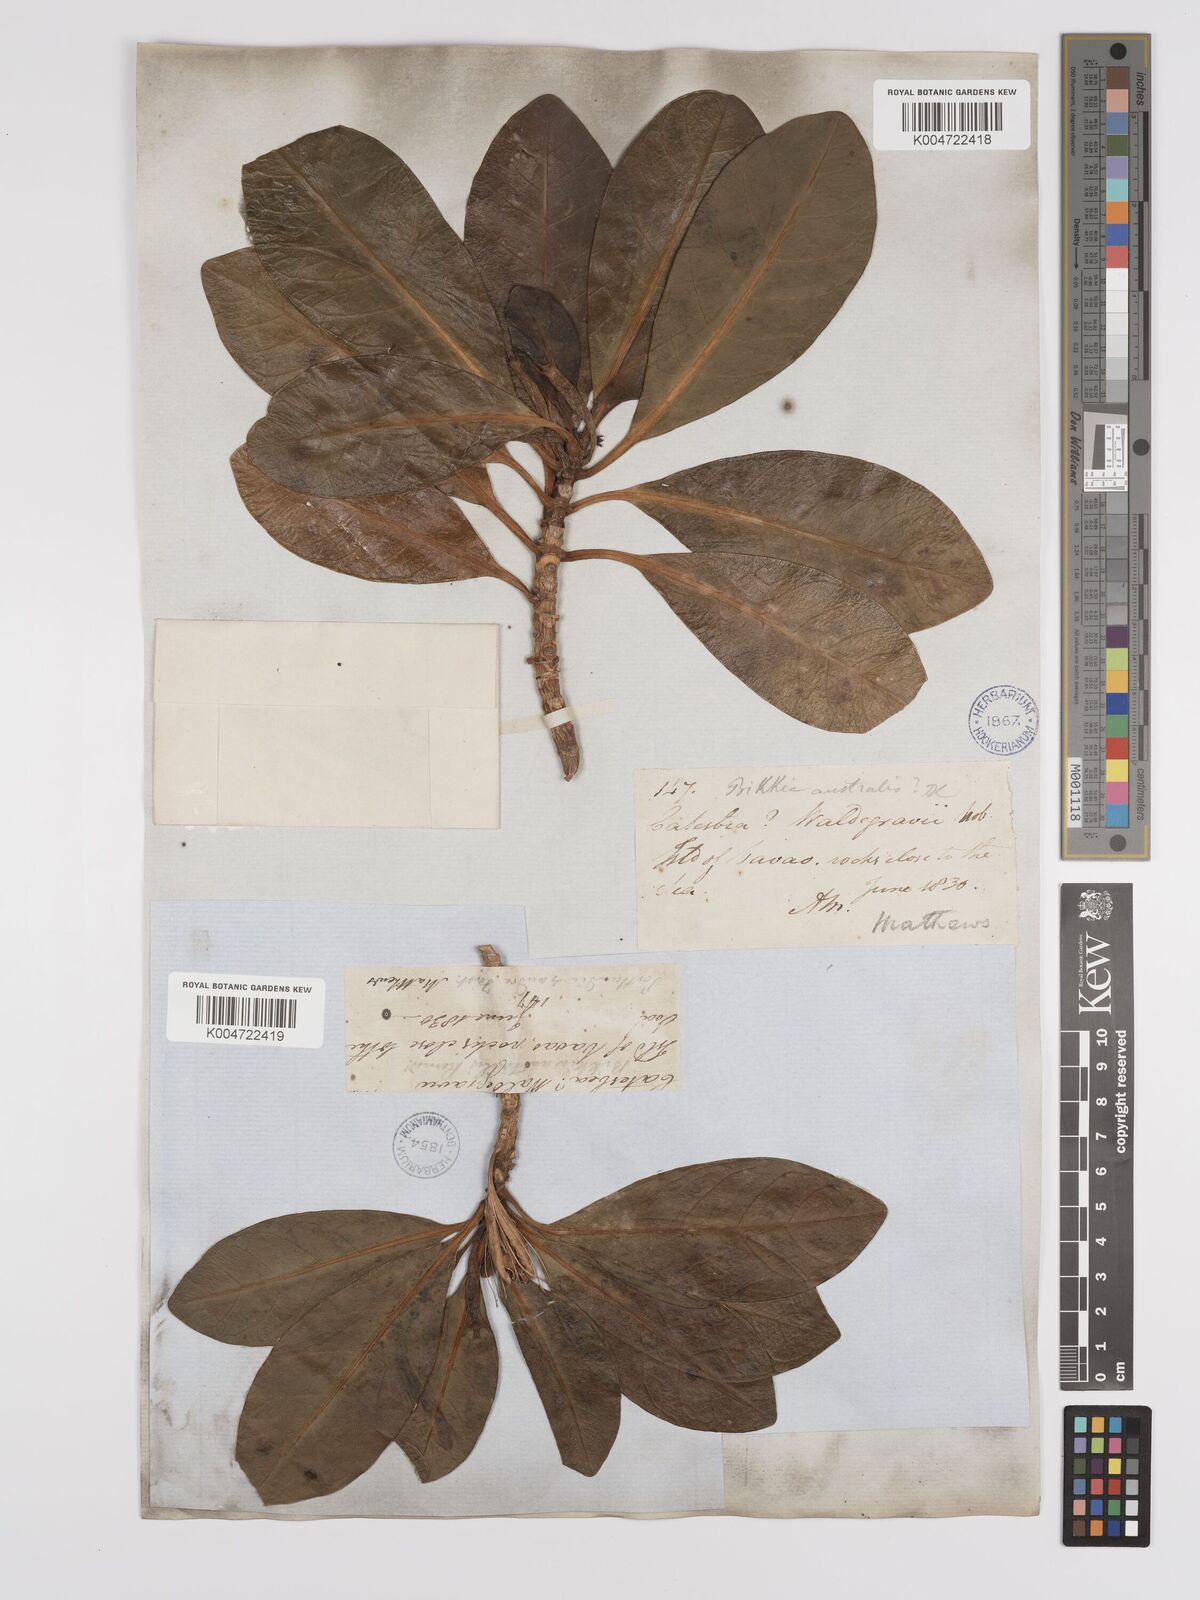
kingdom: Plantae
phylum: Tracheophyta
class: Magnoliopsida
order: Gentianales
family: Rubiaceae
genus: Bikkia
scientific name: Bikkia
